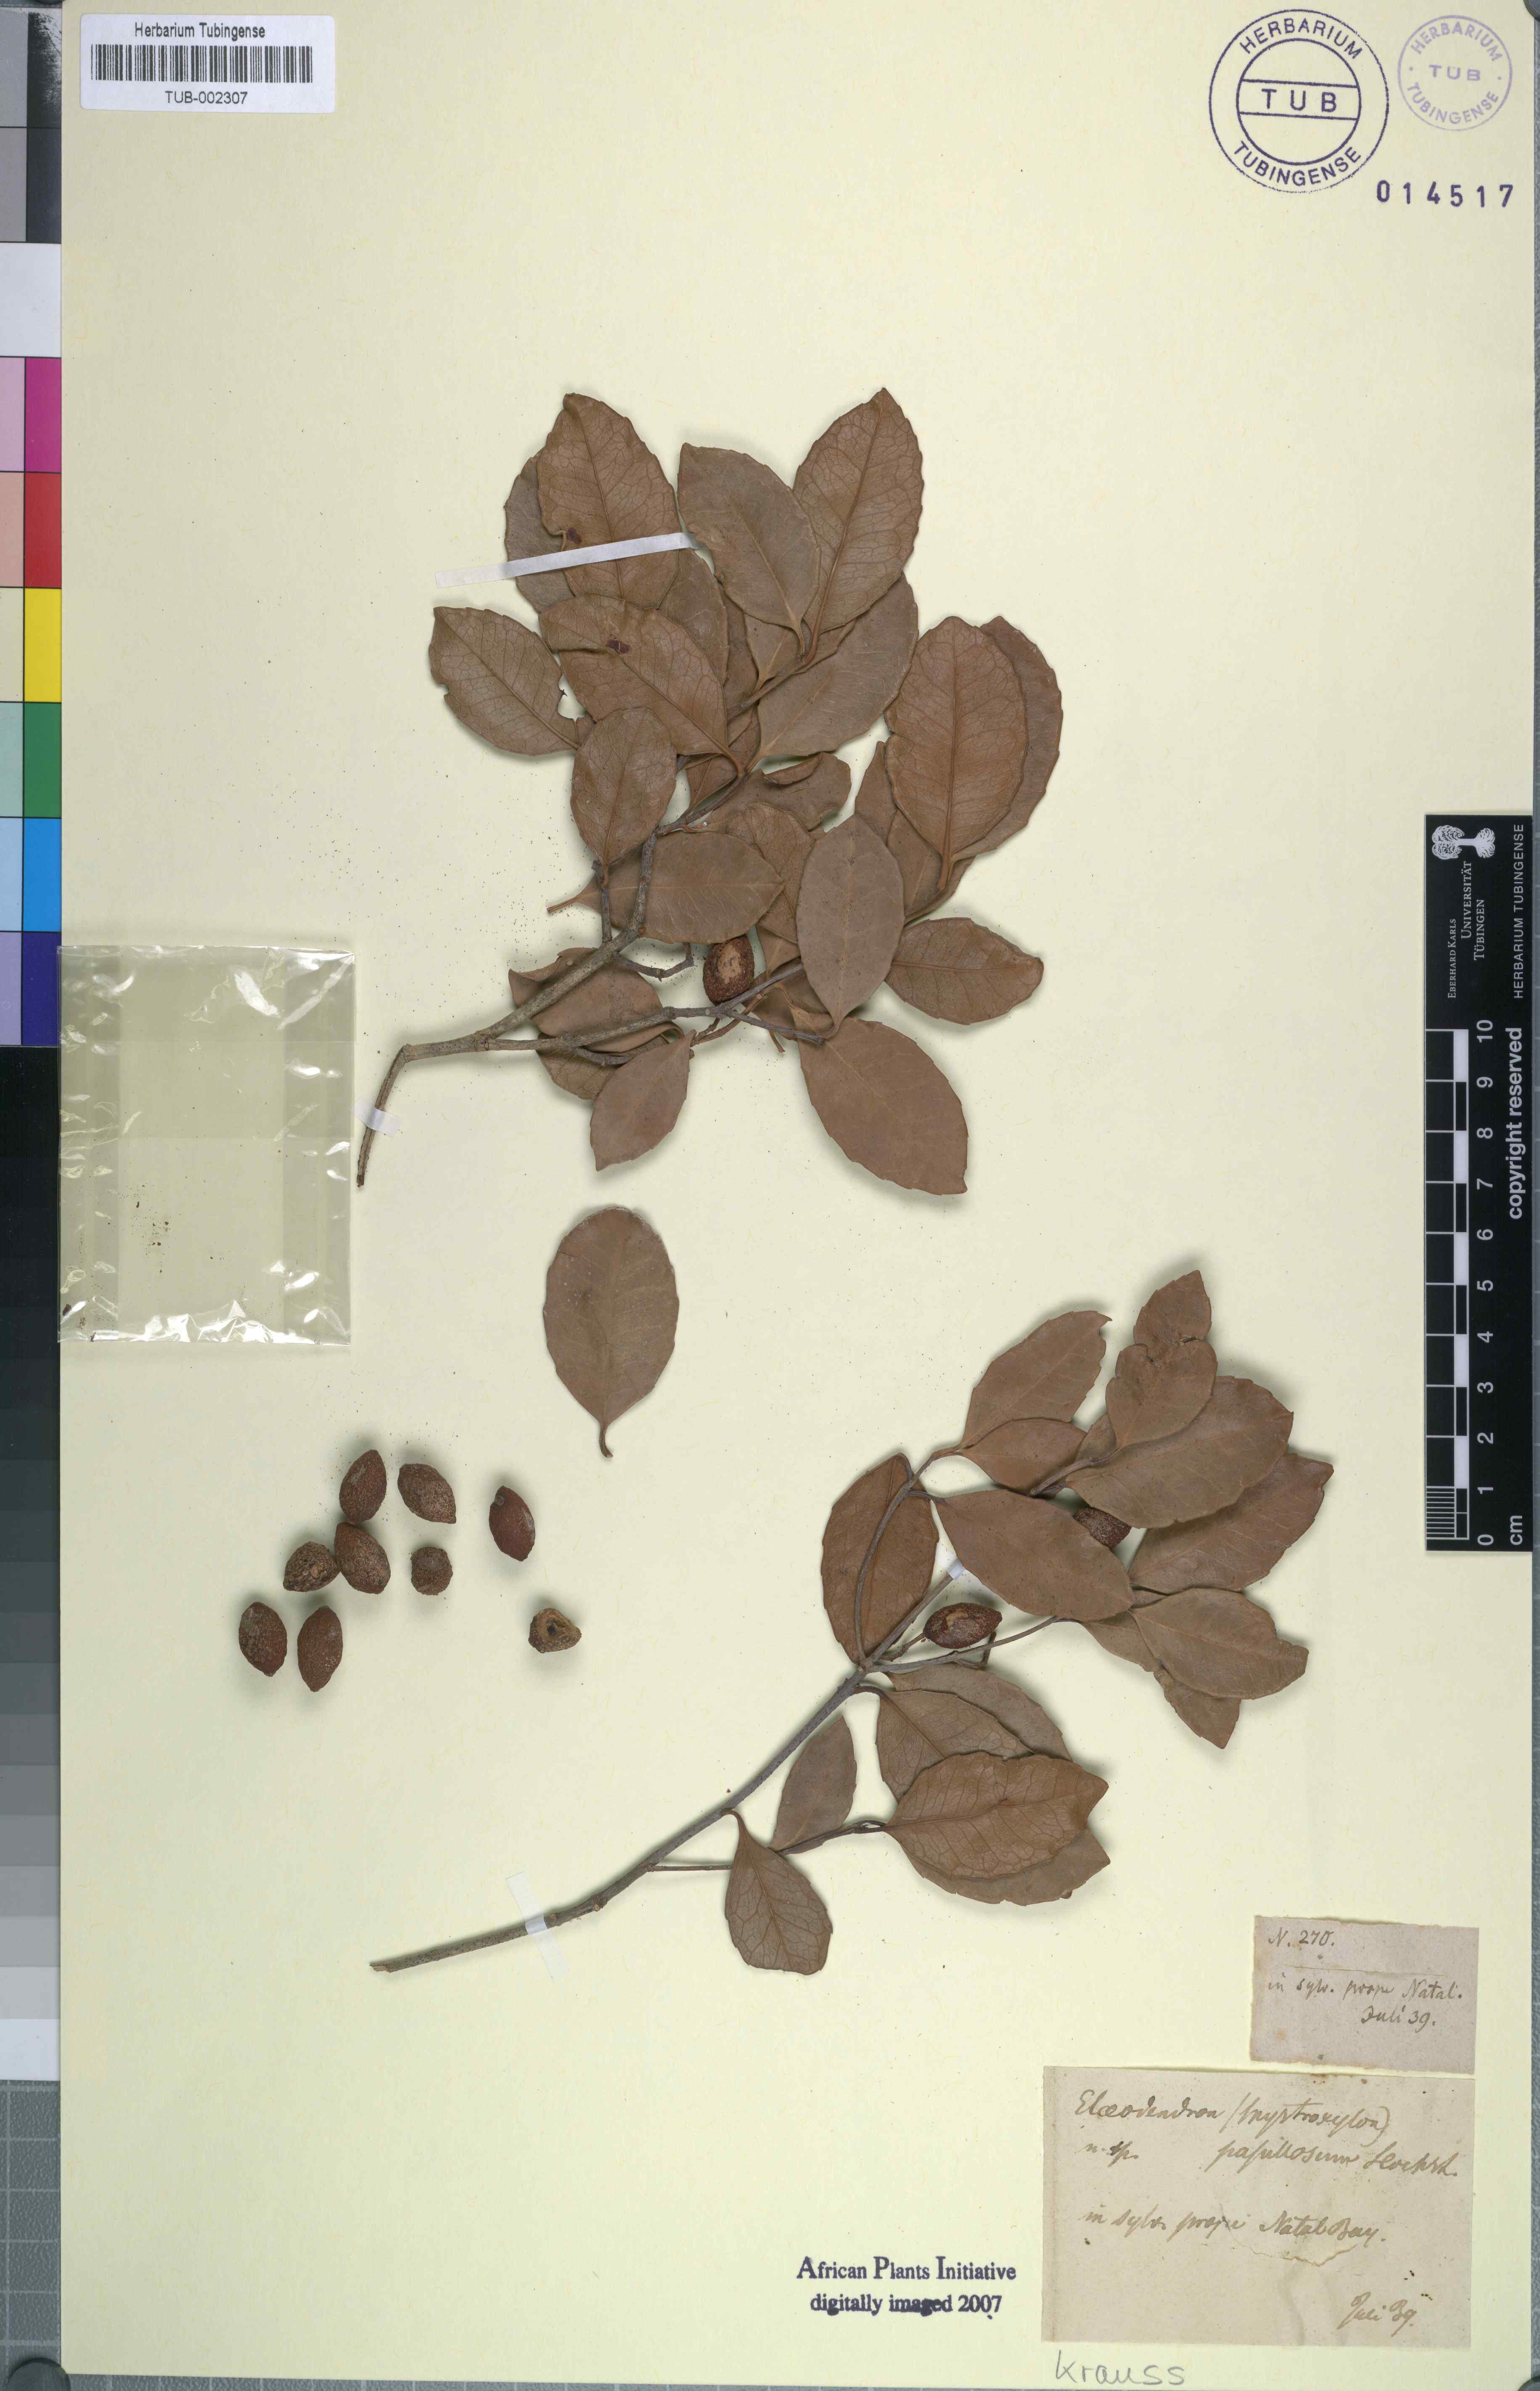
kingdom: Plantae
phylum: Tracheophyta
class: Magnoliopsida
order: Celastrales
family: Celastraceae
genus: Elaeodendron
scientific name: Elaeodendron croceum
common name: Saffron
